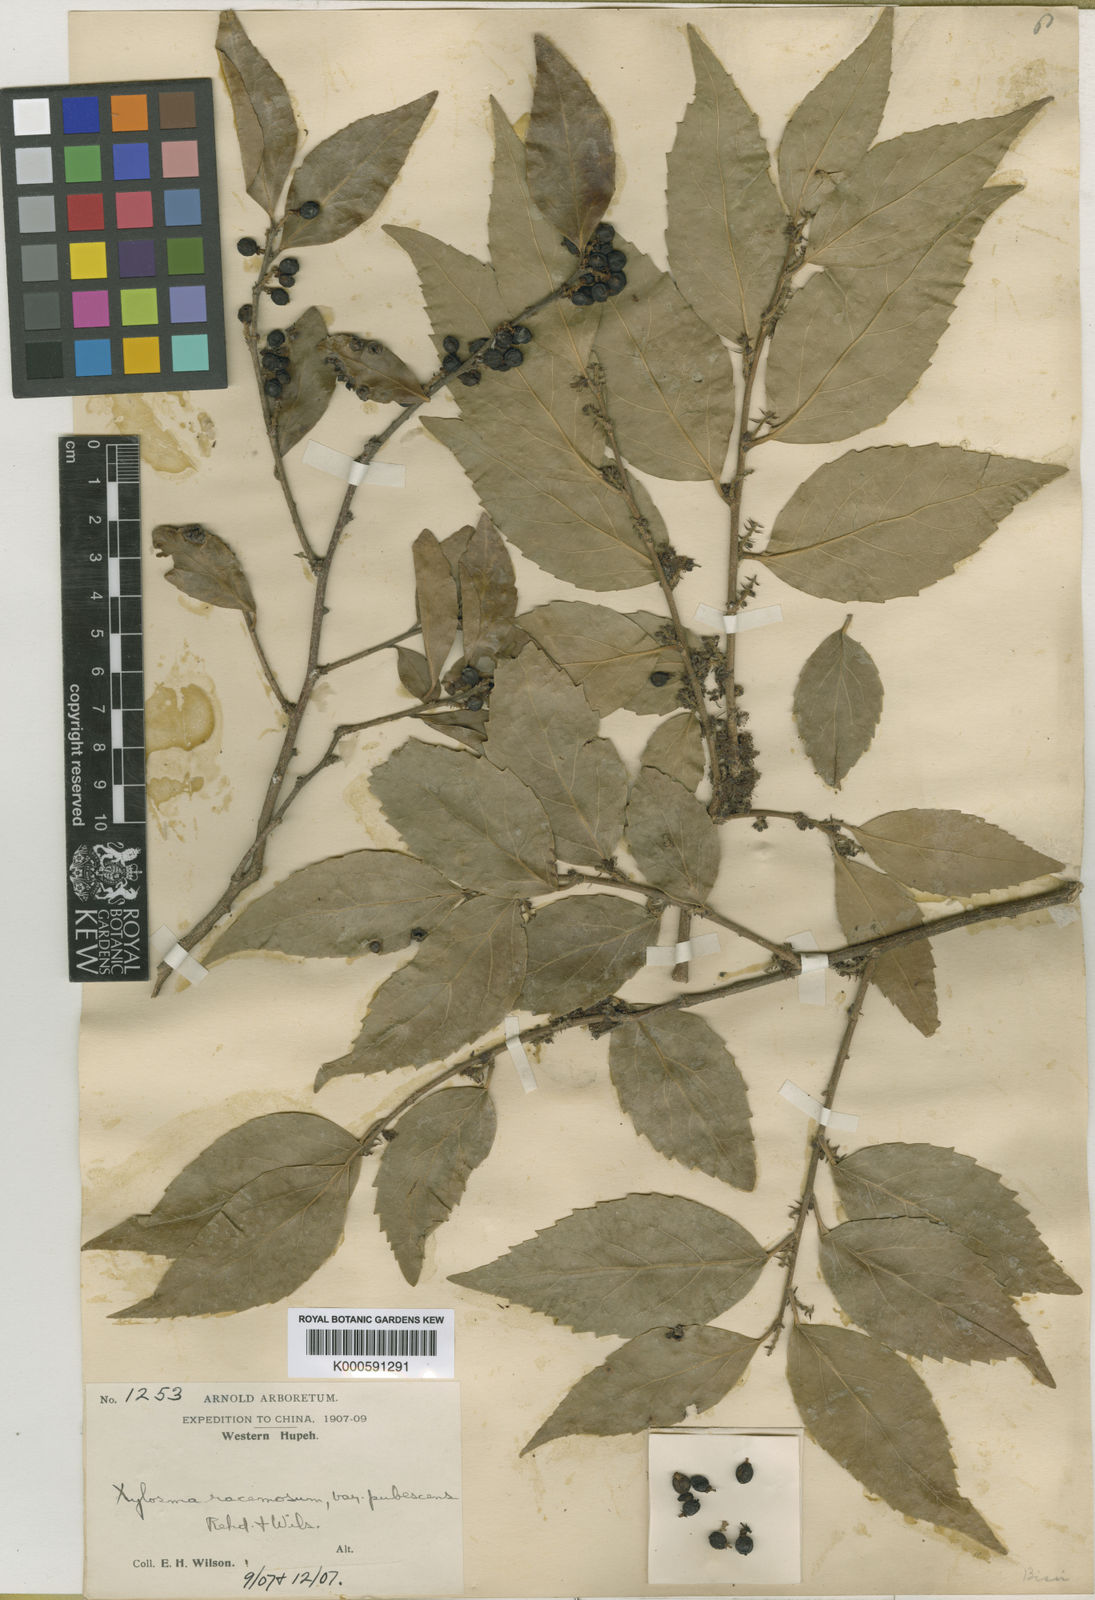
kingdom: Plantae
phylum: Tracheophyta
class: Magnoliopsida
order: Malpighiales
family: Salicaceae
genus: Xylosma
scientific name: Xylosma racemosum
